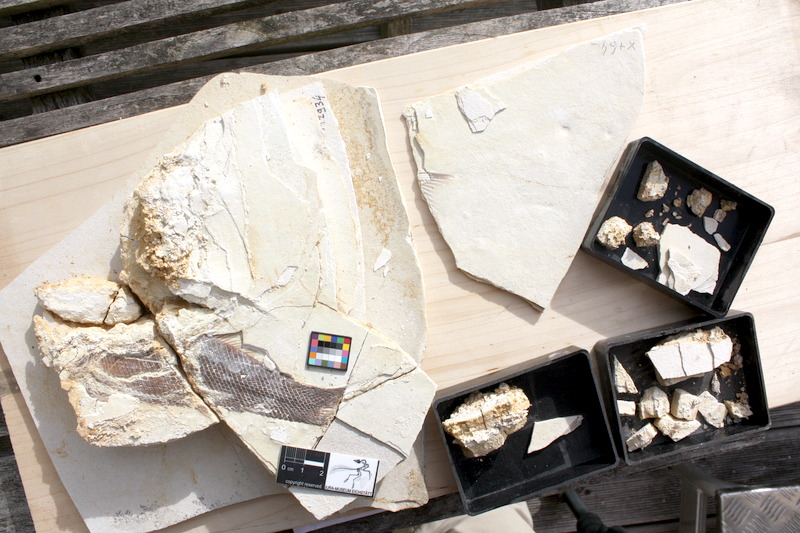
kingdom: Animalia
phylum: Chordata
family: Ophiopsiellidae
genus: Ophiopsiella
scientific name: Ophiopsiella attenuata
